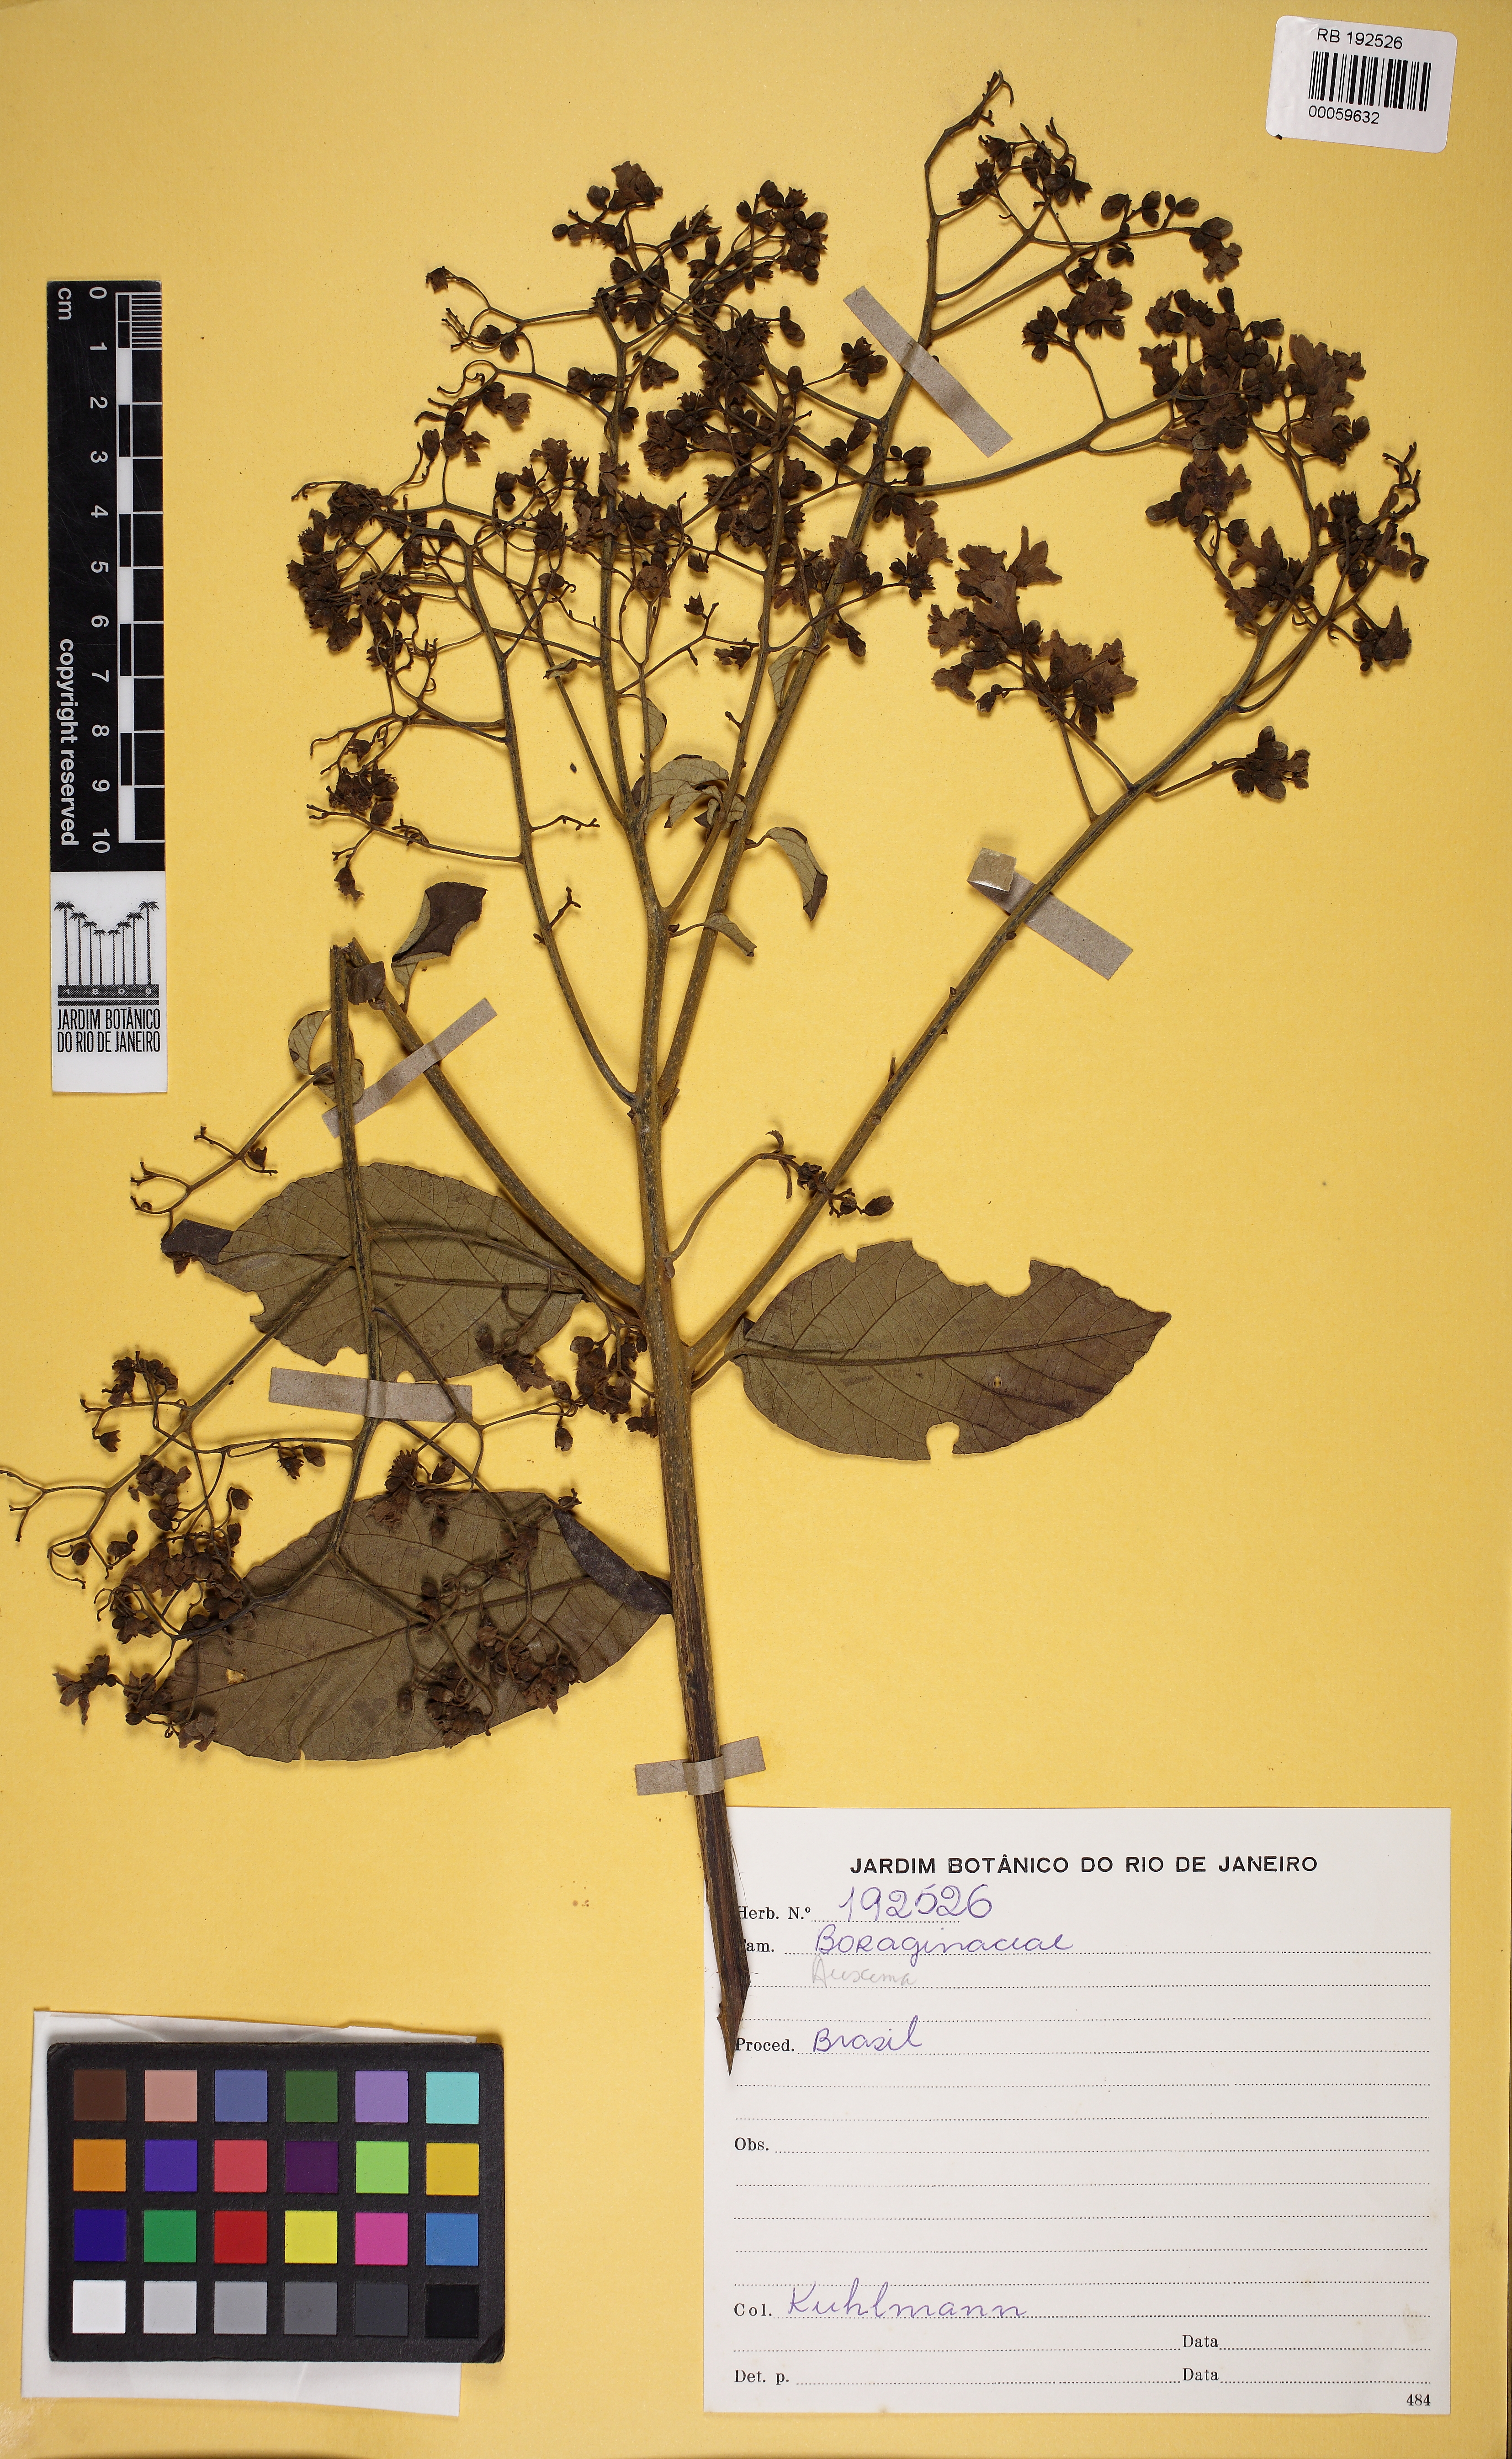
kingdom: Plantae
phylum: Tracheophyta
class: Magnoliopsida
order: Boraginales
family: Cordiaceae
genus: Cordia
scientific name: Cordia
